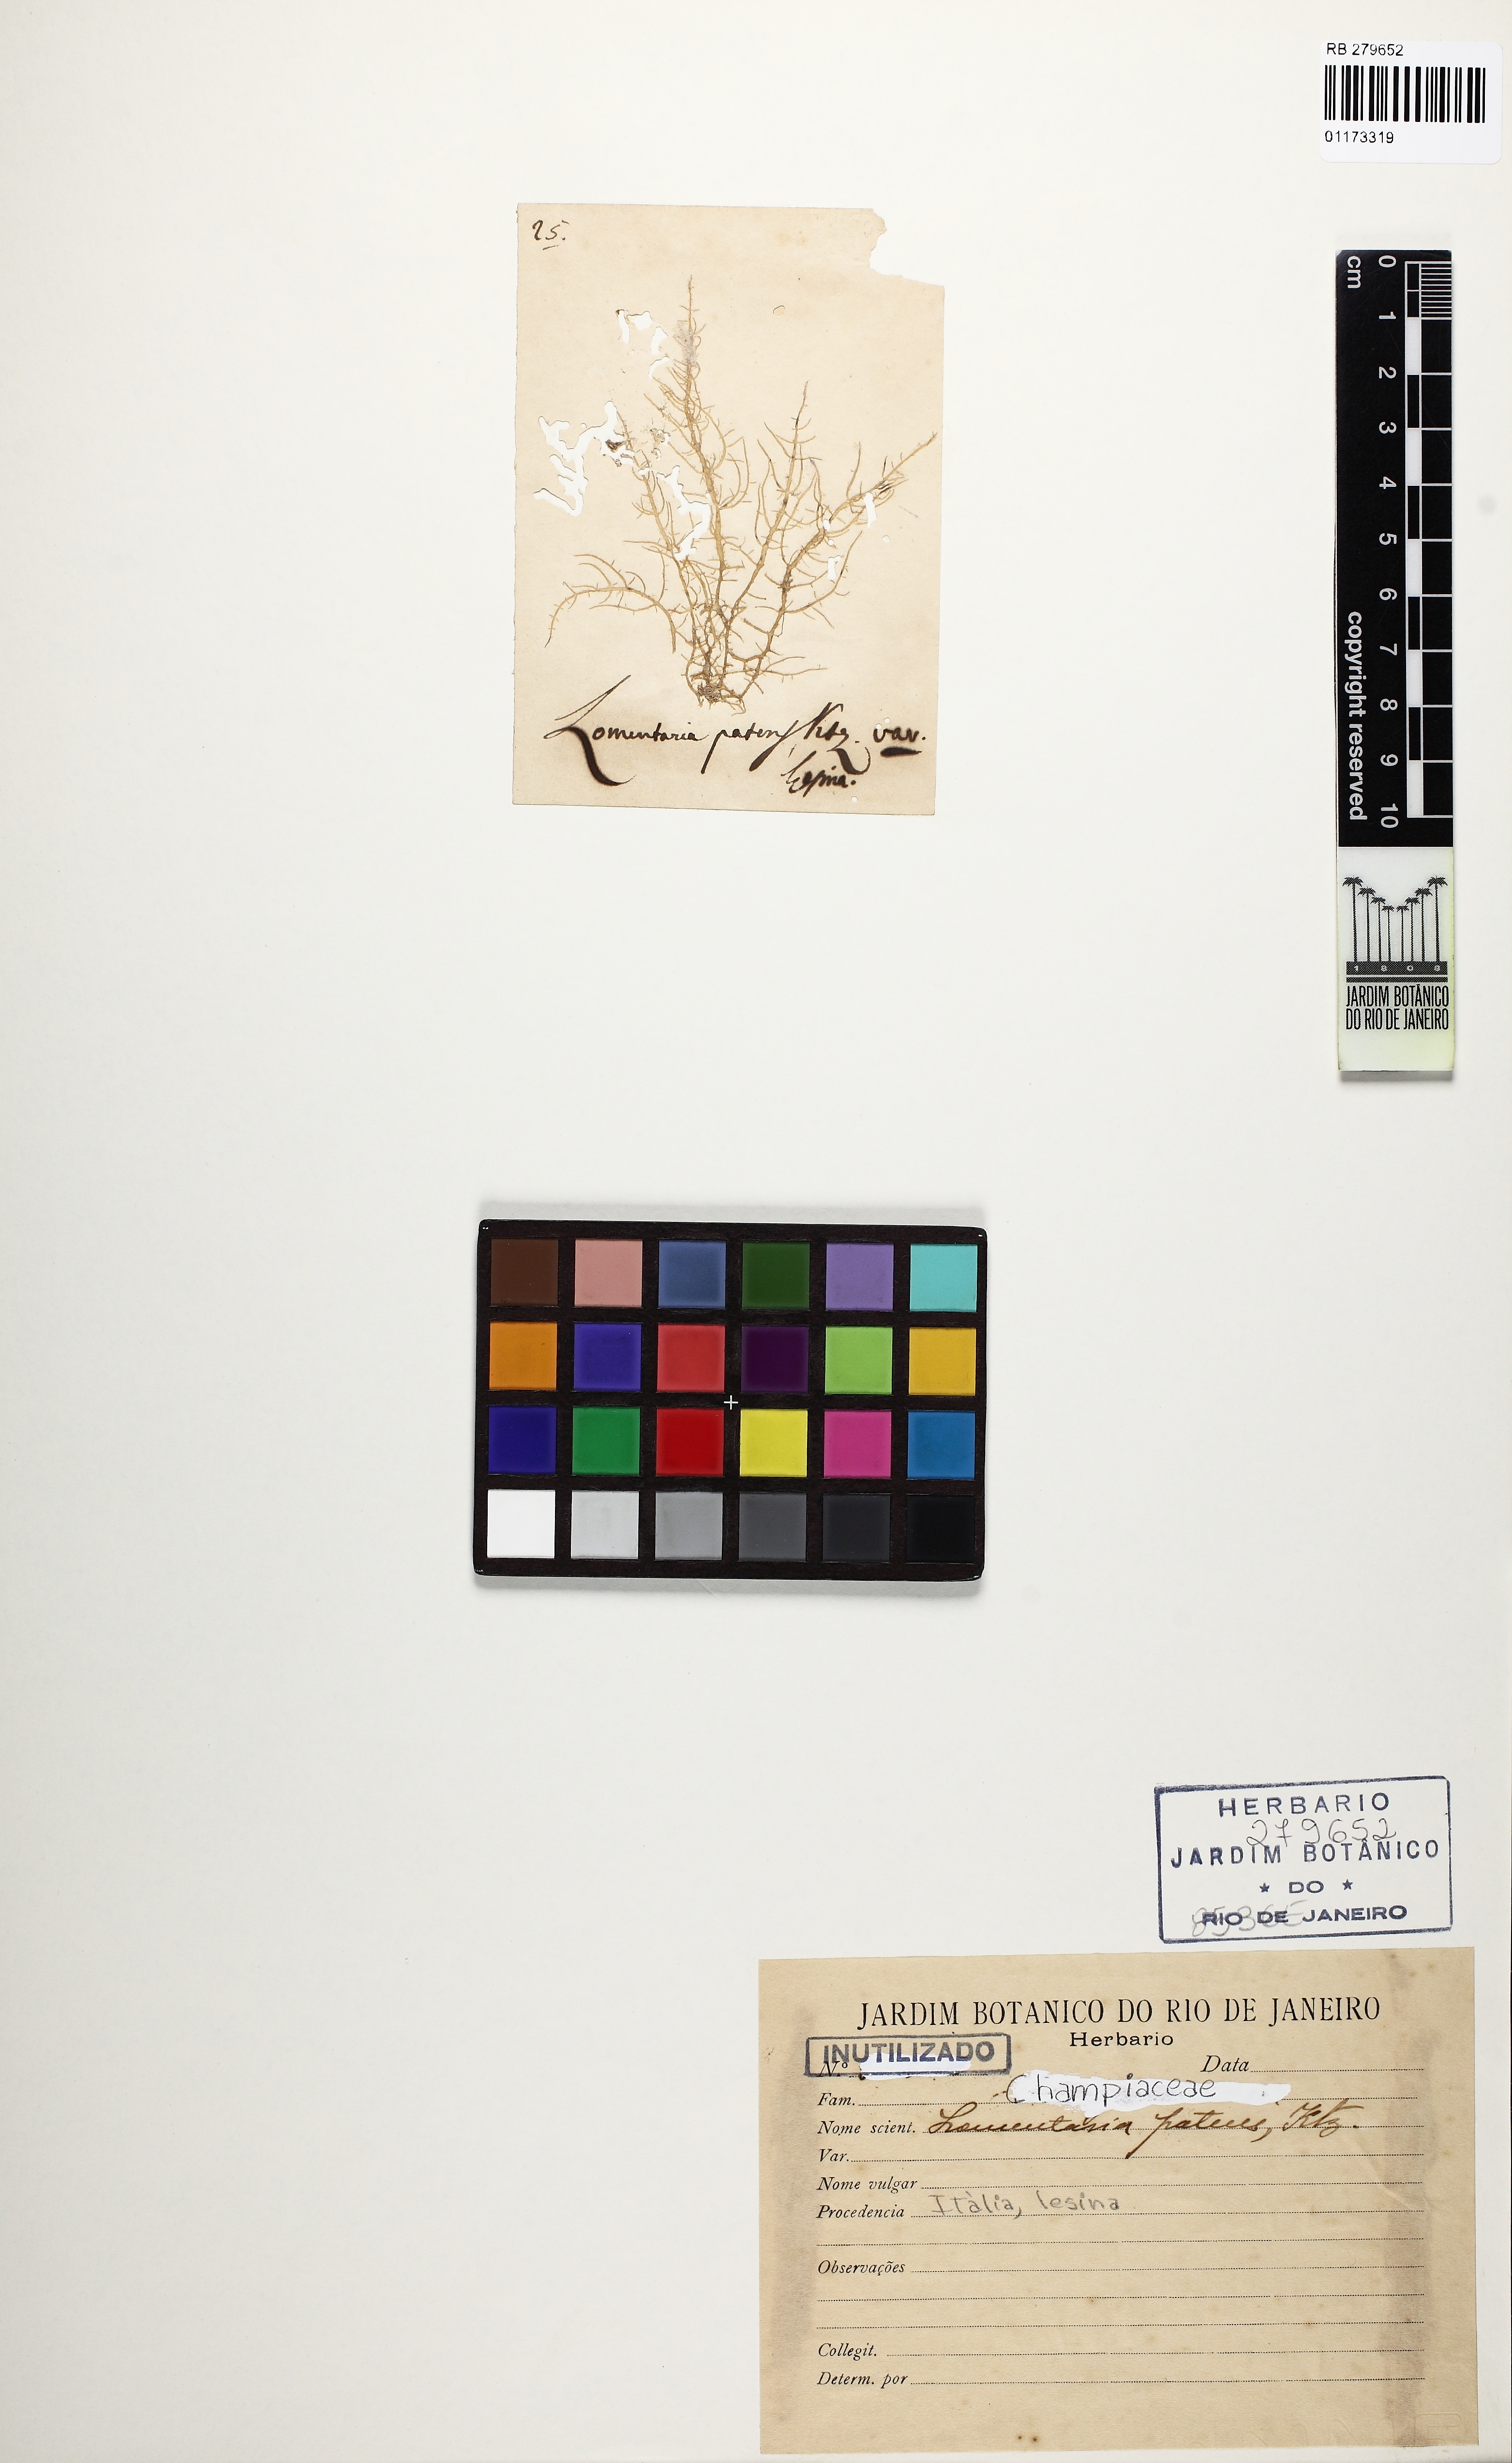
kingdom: Plantae
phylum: Rhodophyta
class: Florideophyceae
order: Rhodymeniales
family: Champiaceae
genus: Chylocladia
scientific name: Chylocladia verticillata
